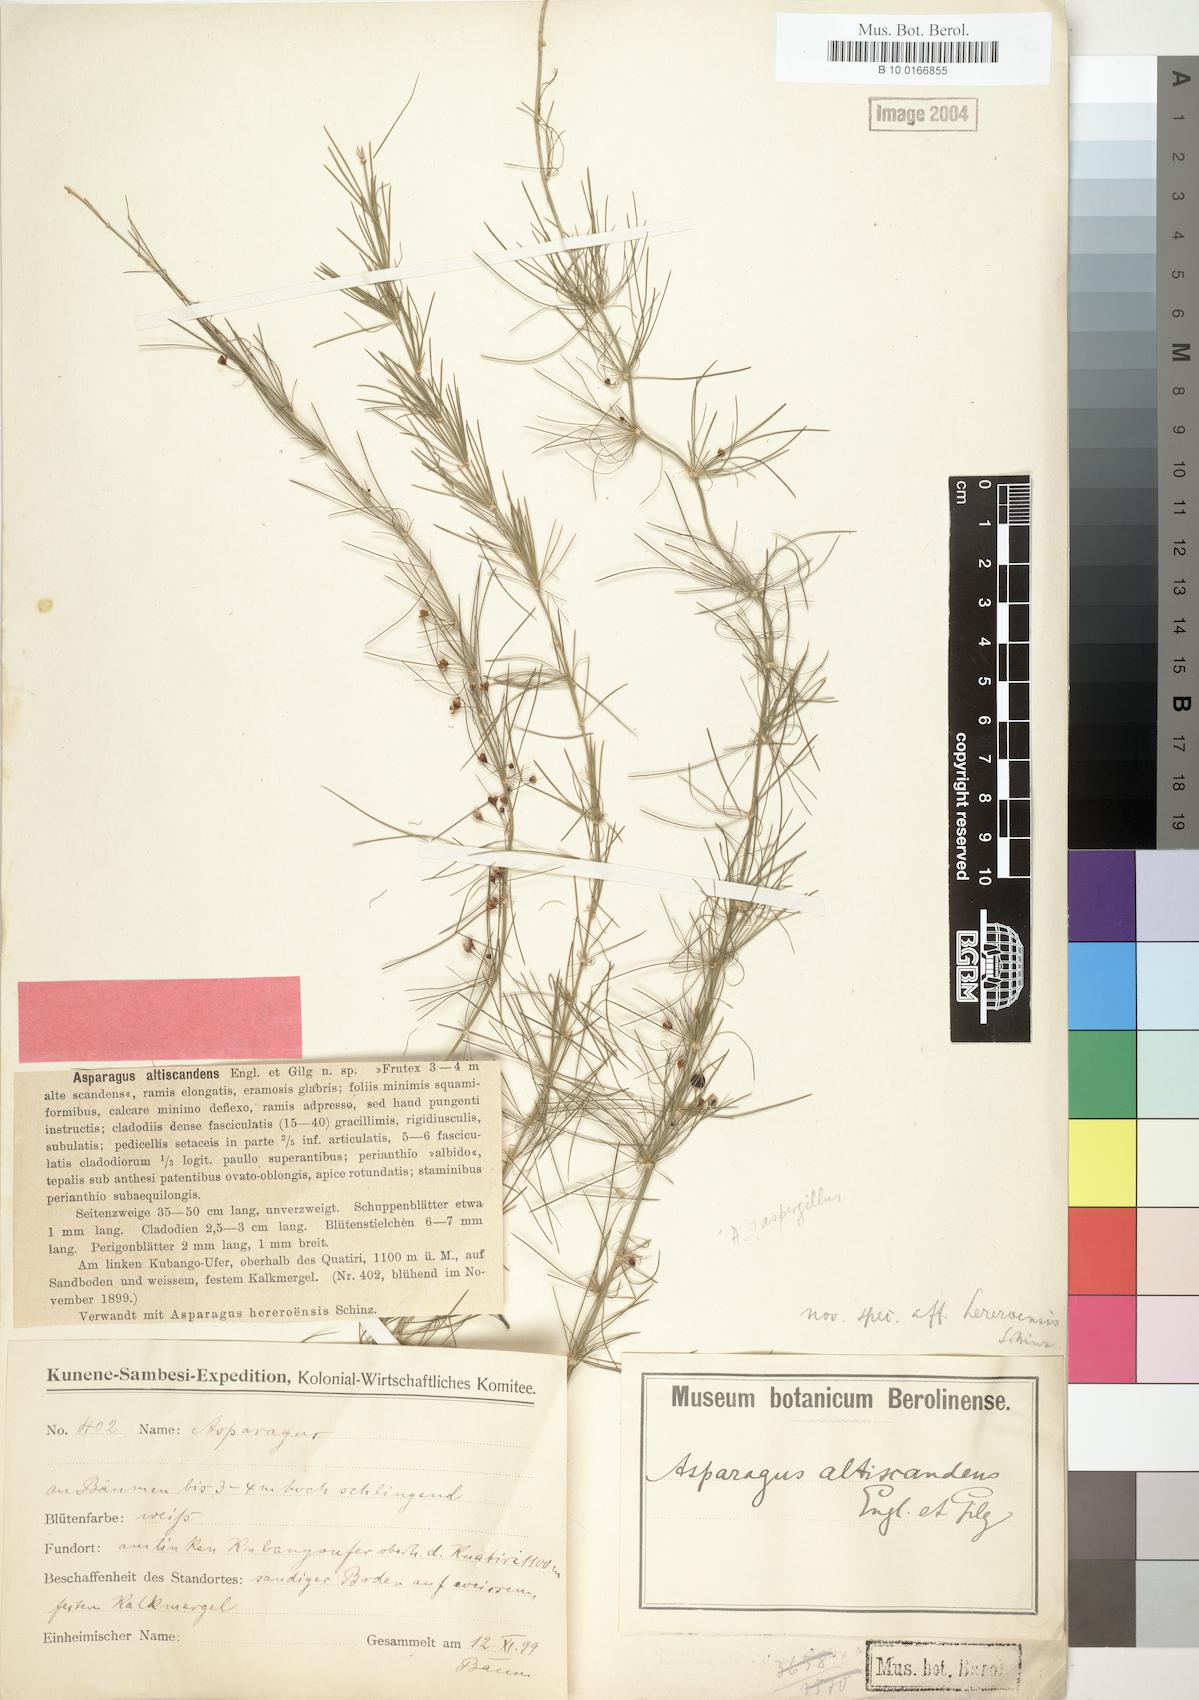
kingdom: Plantae
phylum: Tracheophyta
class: Liliopsida
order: Asparagales
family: Asparagaceae
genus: Asparagus
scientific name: Asparagus altiscandens
